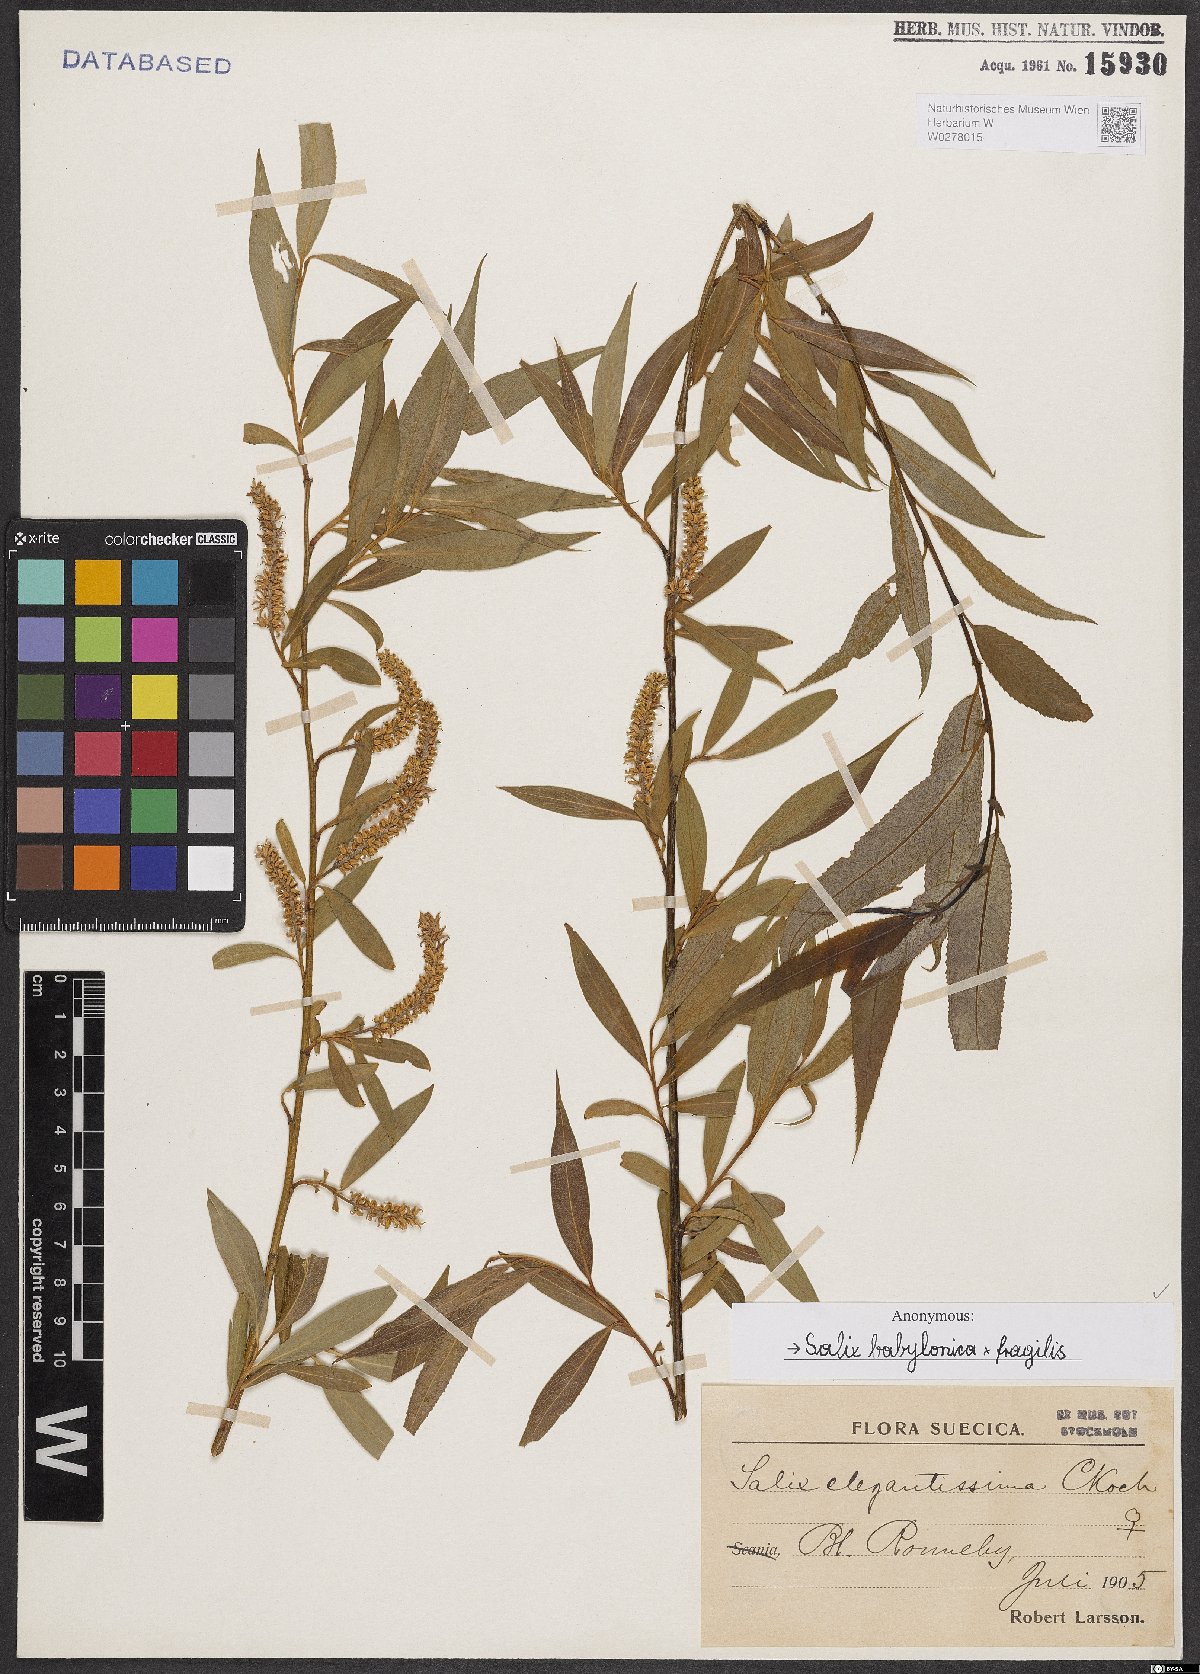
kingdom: Plantae
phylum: Tracheophyta
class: Magnoliopsida
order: Malpighiales
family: Salicaceae
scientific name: Salicaceae
